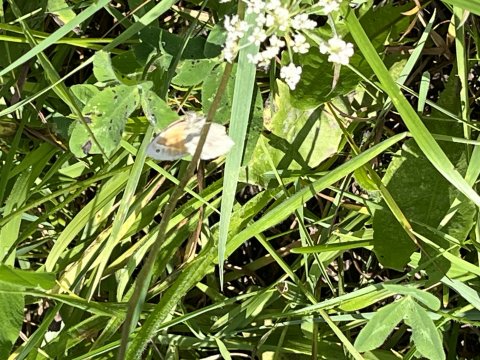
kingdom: Animalia
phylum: Arthropoda
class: Insecta
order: Lepidoptera
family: Nymphalidae
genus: Coenonympha
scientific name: Coenonympha tullia
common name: Large Heath
